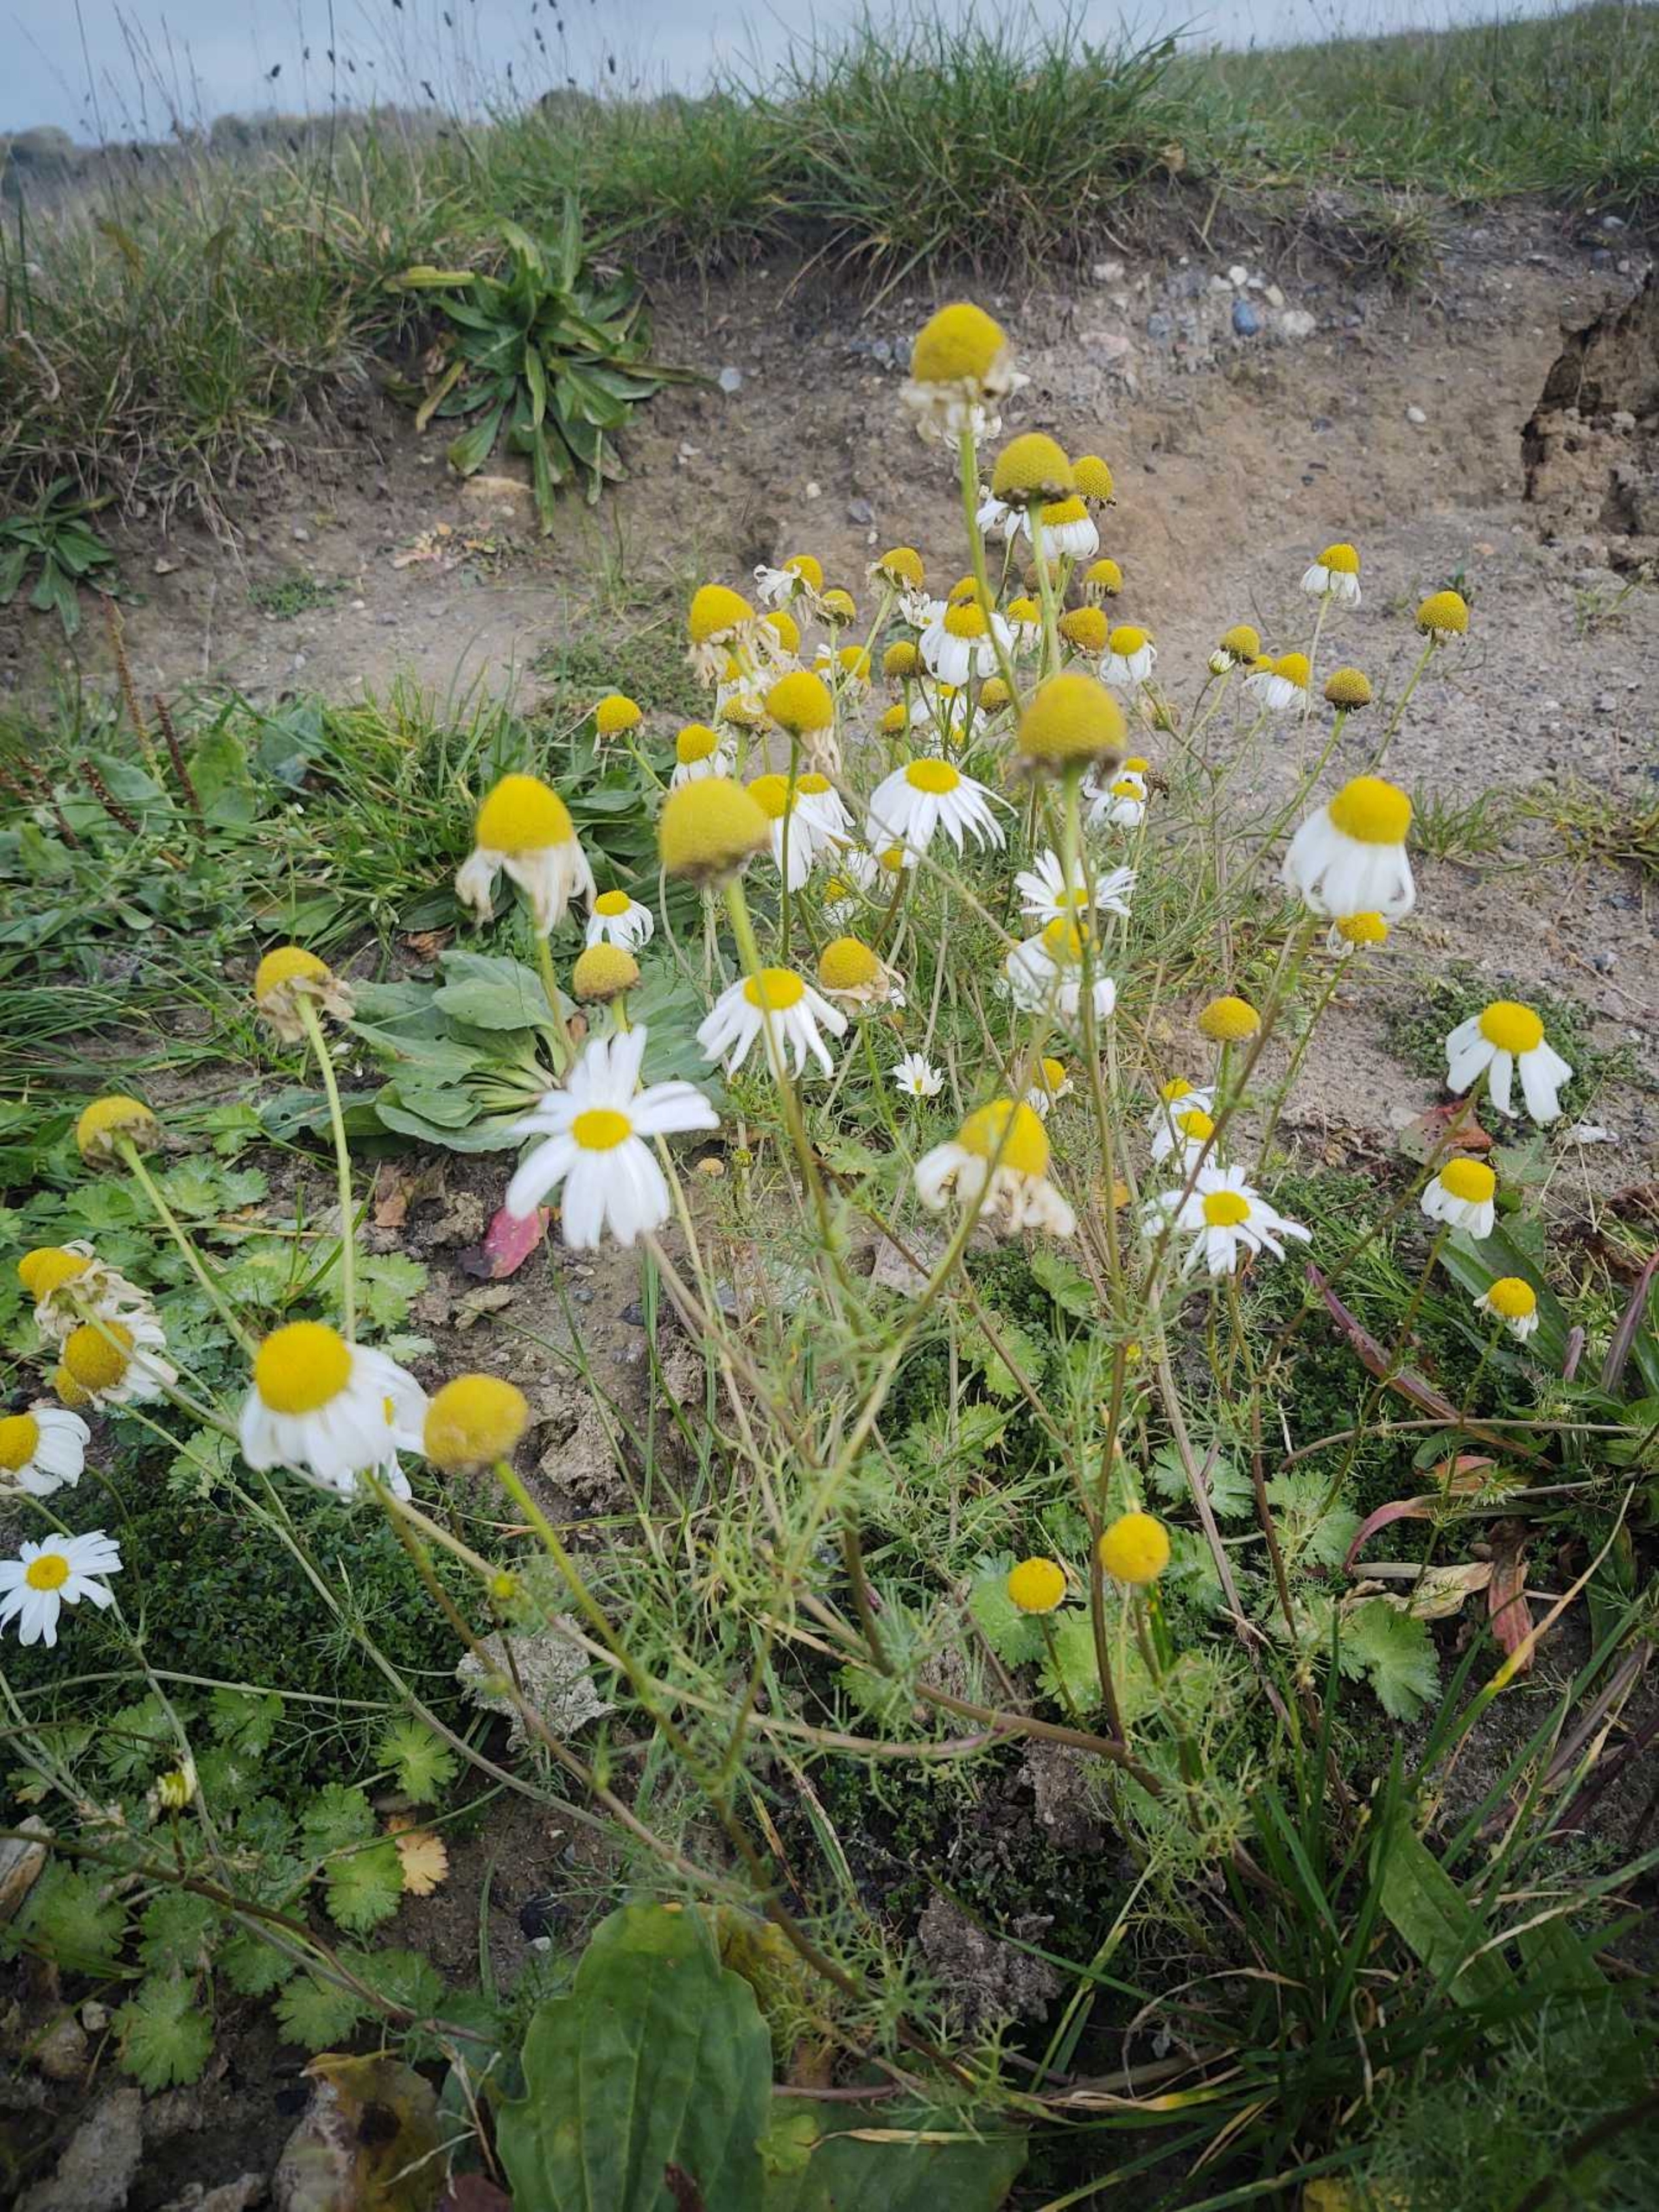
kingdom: Plantae
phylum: Tracheophyta
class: Magnoliopsida
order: Asterales
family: Asteraceae
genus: Tripleurospermum
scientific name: Tripleurospermum inodorum
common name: Lugtløs kamille
